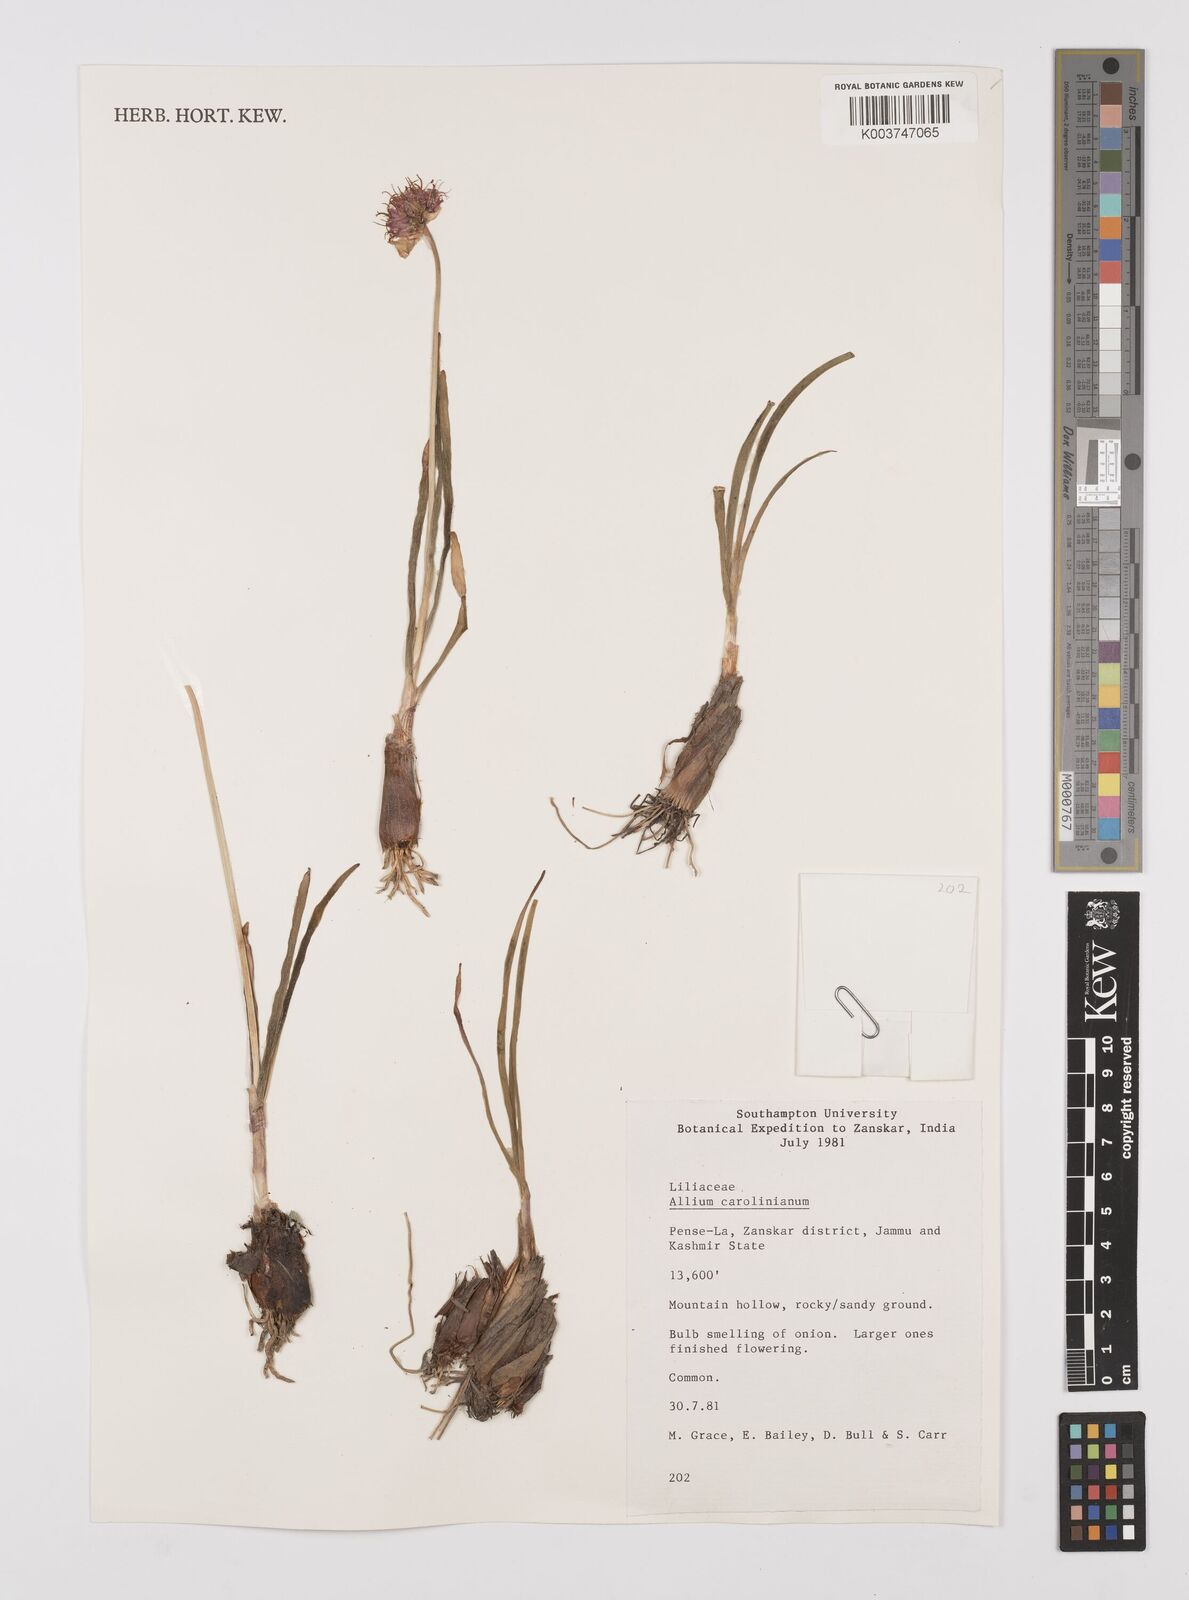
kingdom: Plantae
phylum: Tracheophyta
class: Liliopsida
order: Asparagales
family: Amaryllidaceae
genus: Allium
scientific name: Allium carolinianum
